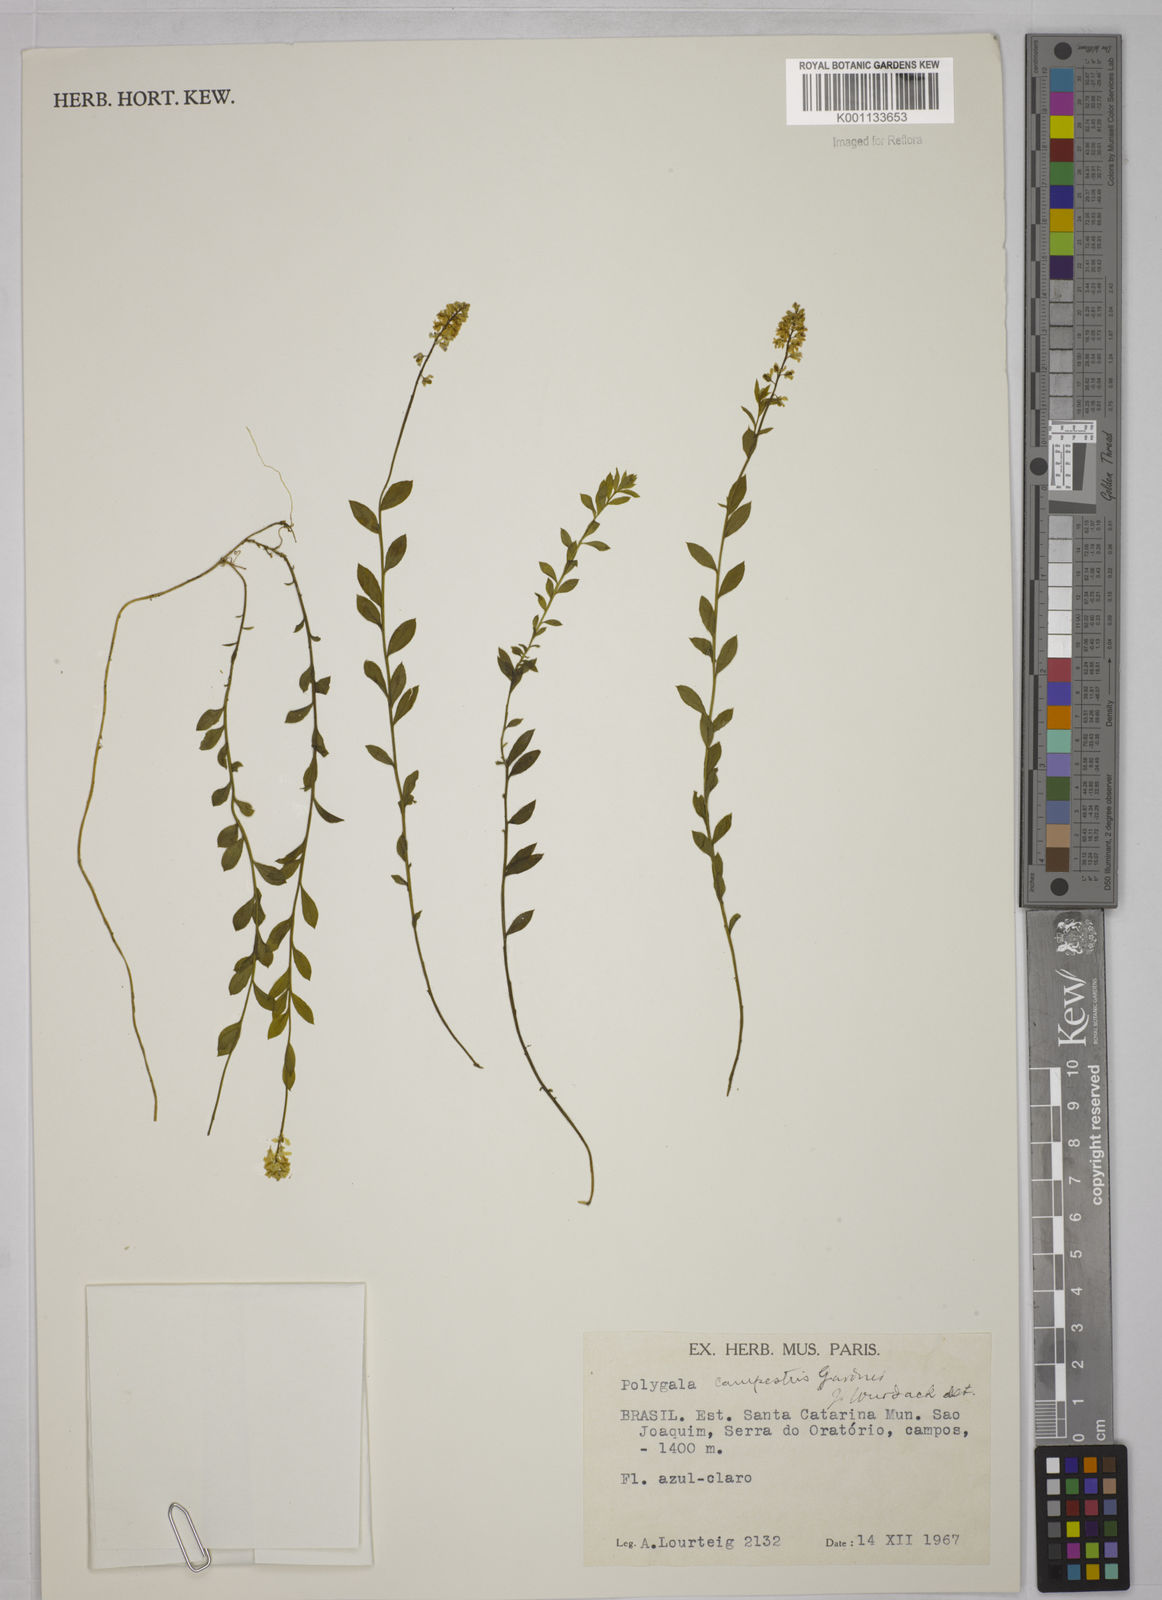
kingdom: Plantae
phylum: Tracheophyta
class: Magnoliopsida
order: Fabales
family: Polygalaceae
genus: Polygala
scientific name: Polygala campestris
